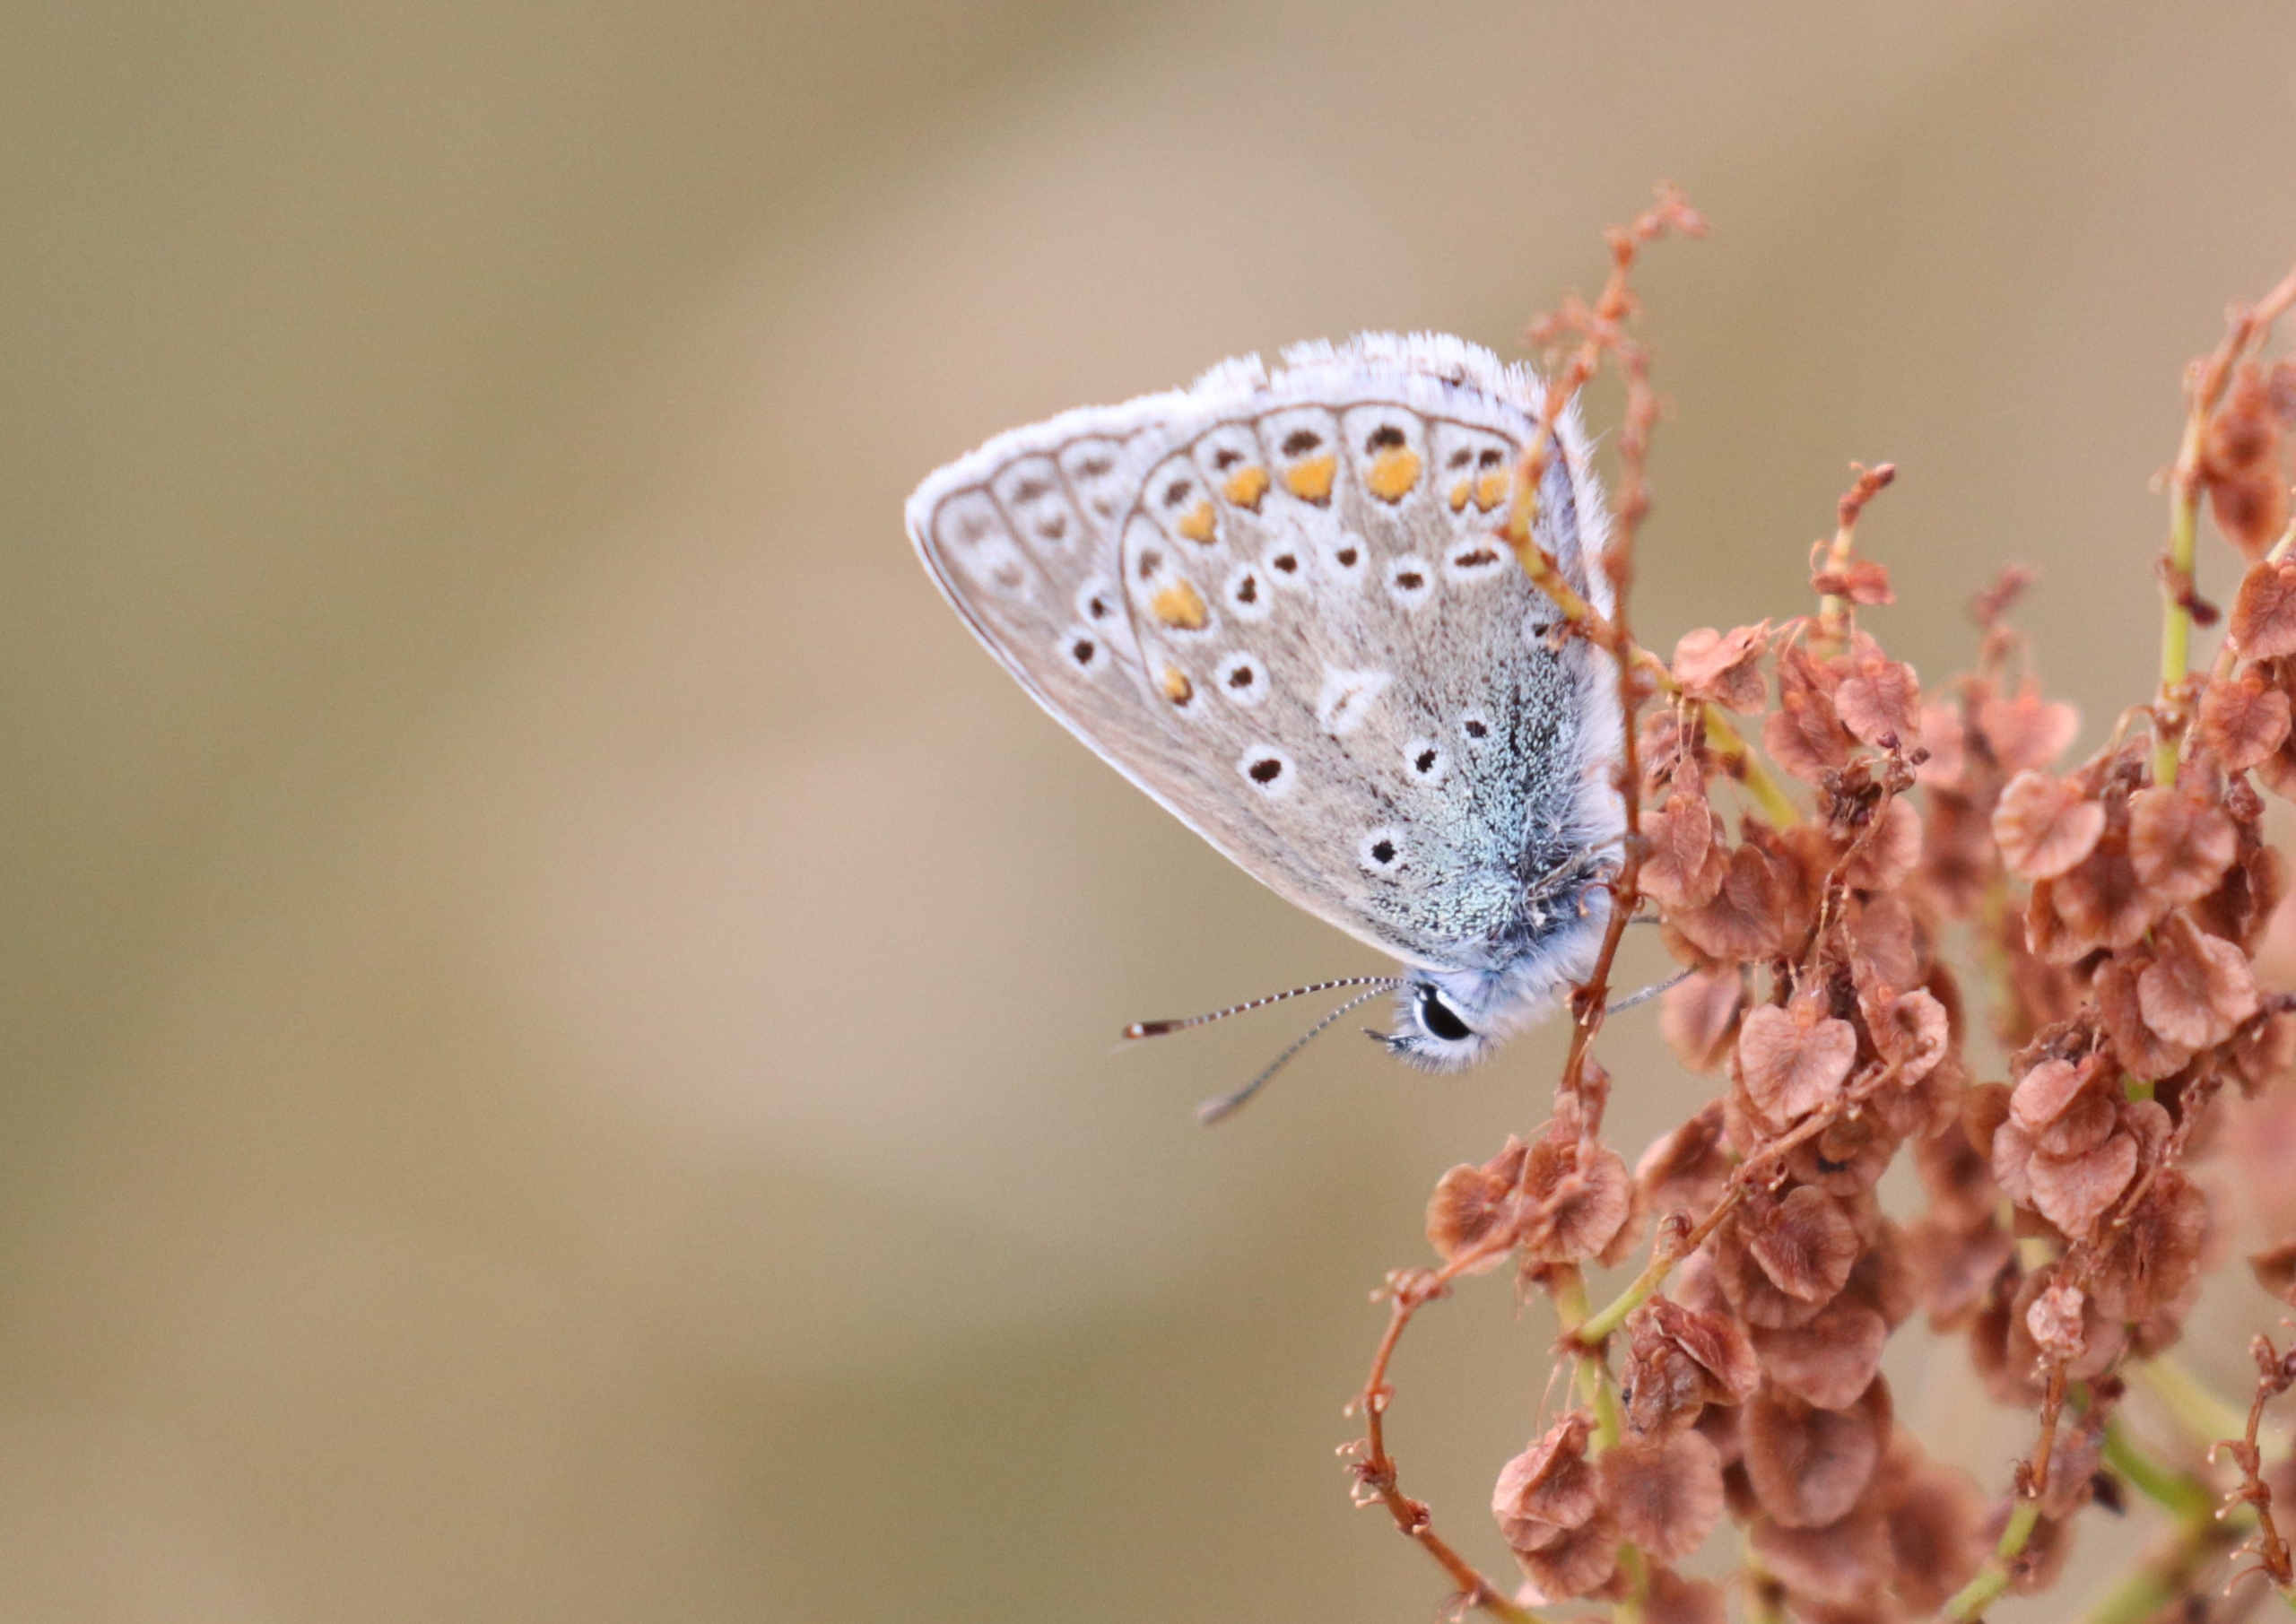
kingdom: Animalia
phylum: Arthropoda
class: Insecta
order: Lepidoptera
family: Lycaenidae
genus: Polyommatus
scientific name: Polyommatus icarus
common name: Almindelig blåfugl
